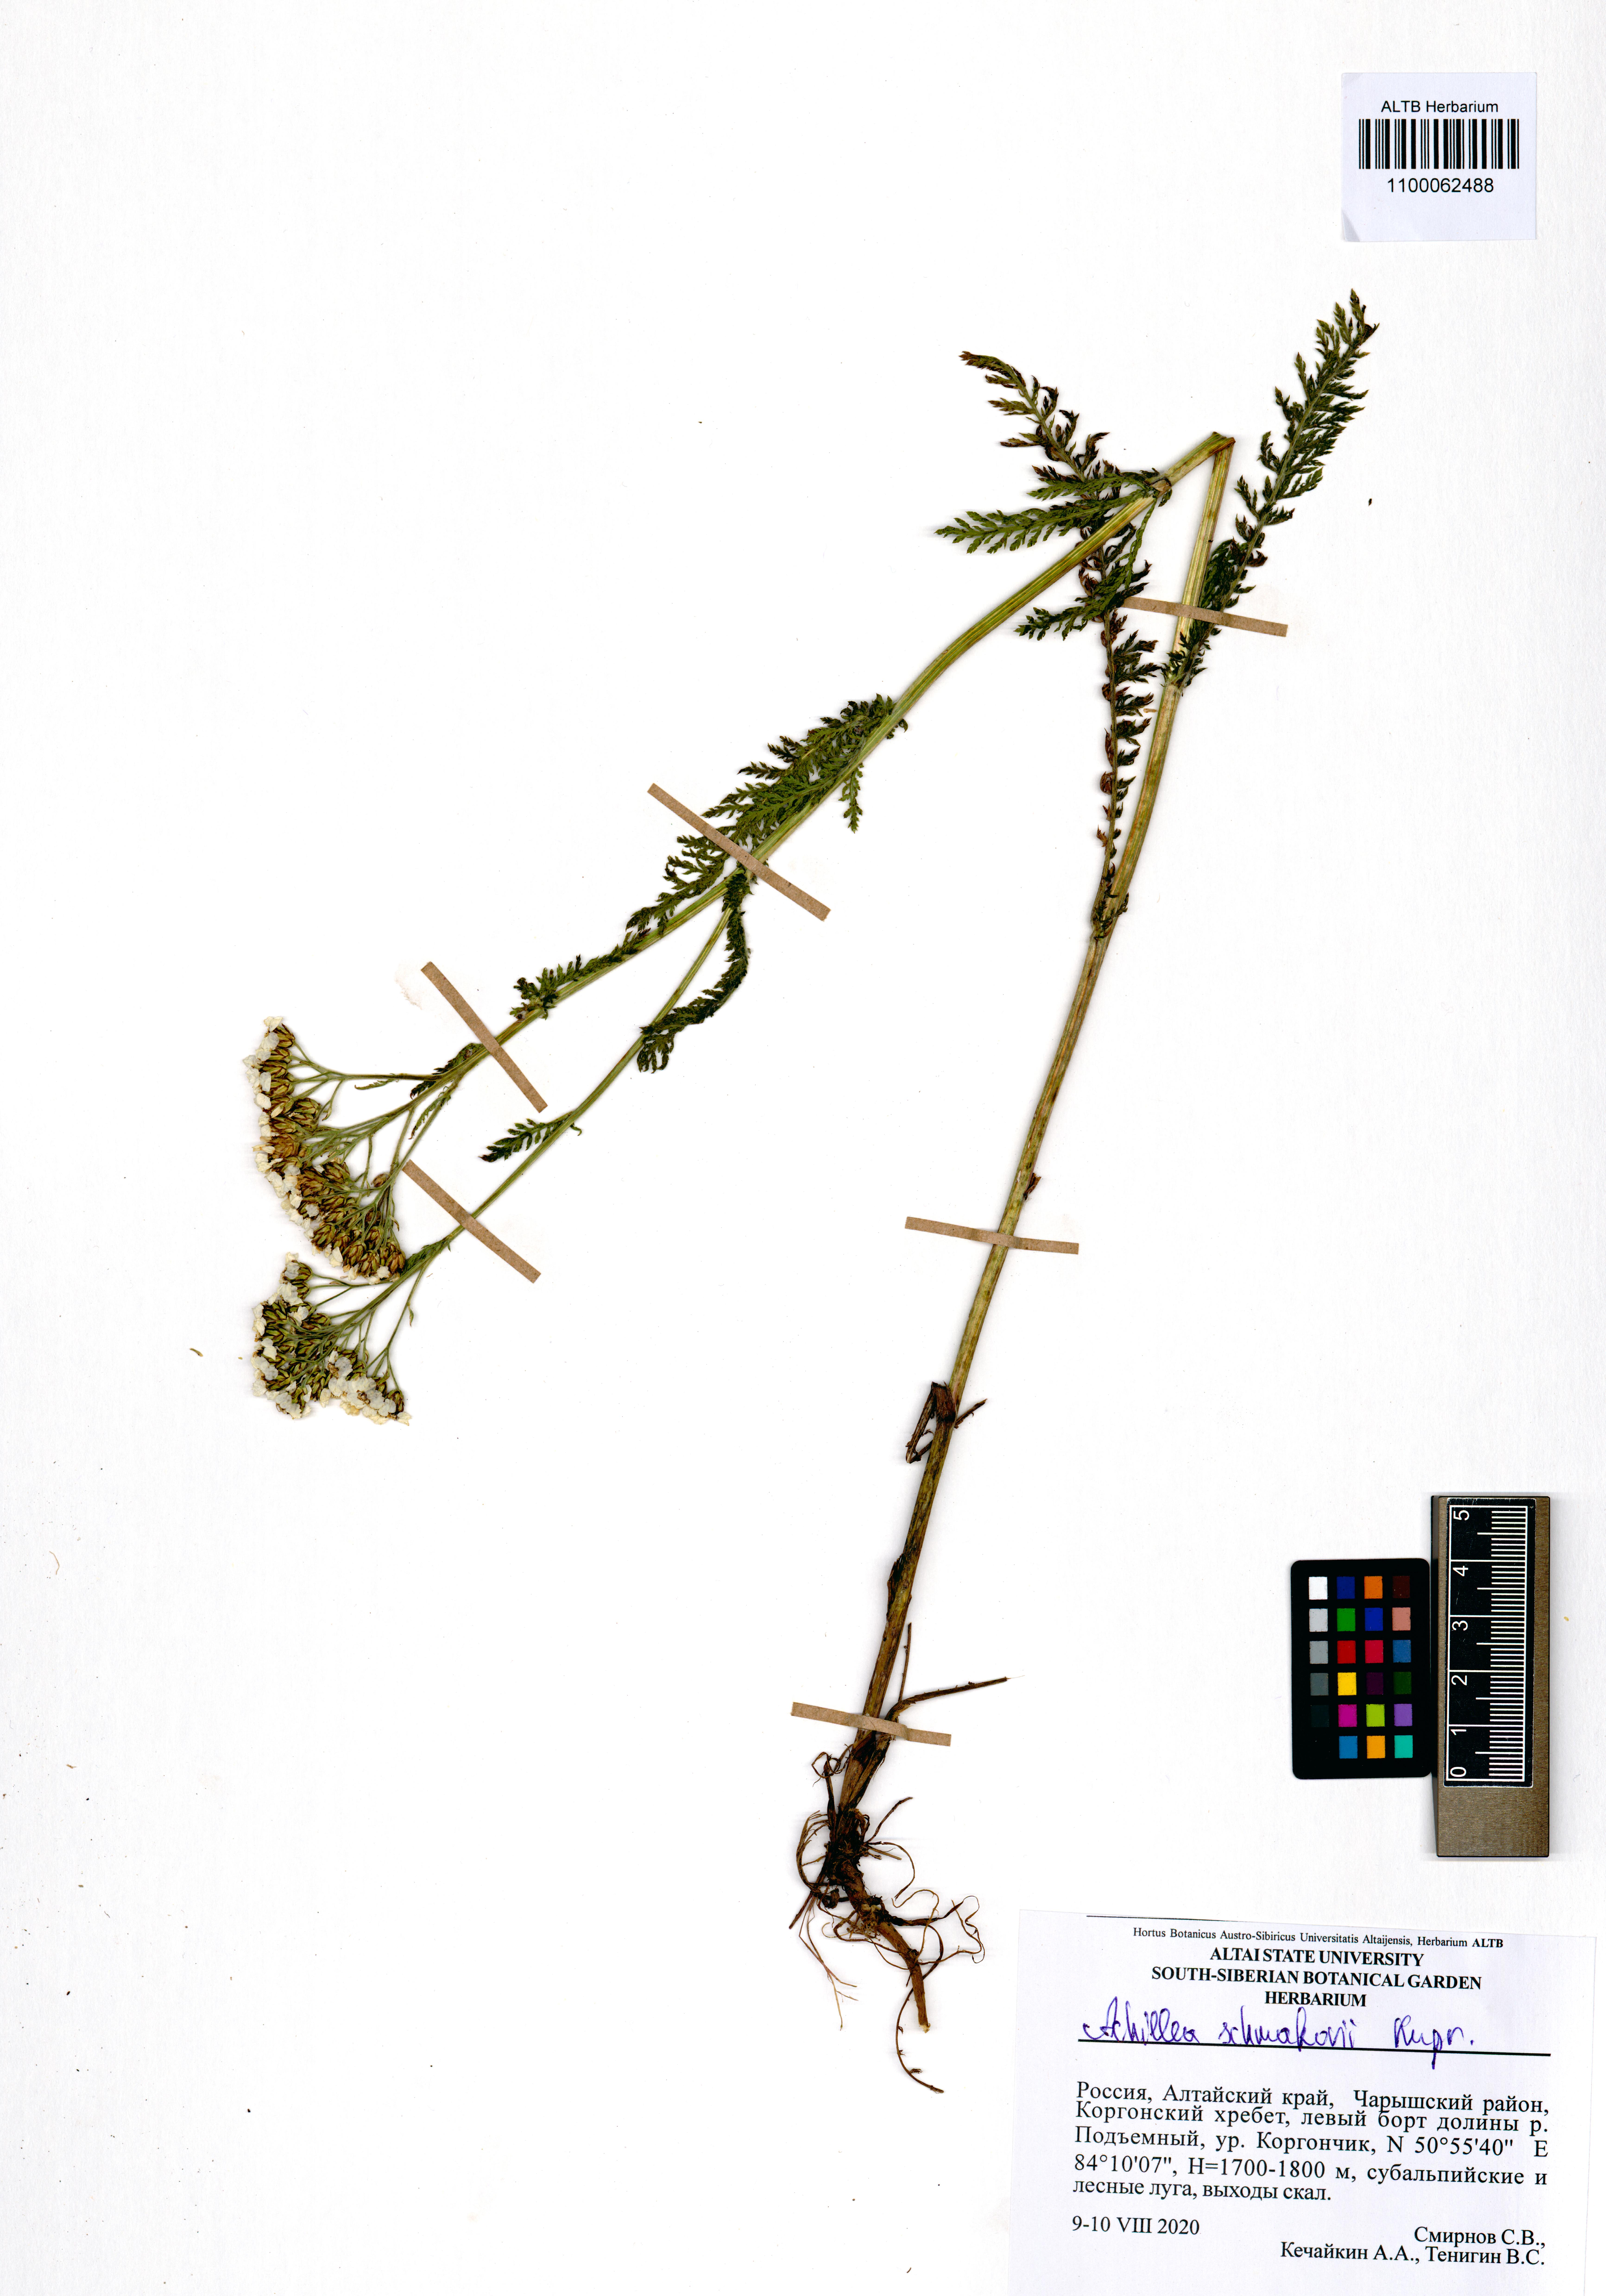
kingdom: Plantae
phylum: Tracheophyta
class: Magnoliopsida
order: Asterales
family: Asteraceae
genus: Achillea
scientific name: Achillea schmakovii
